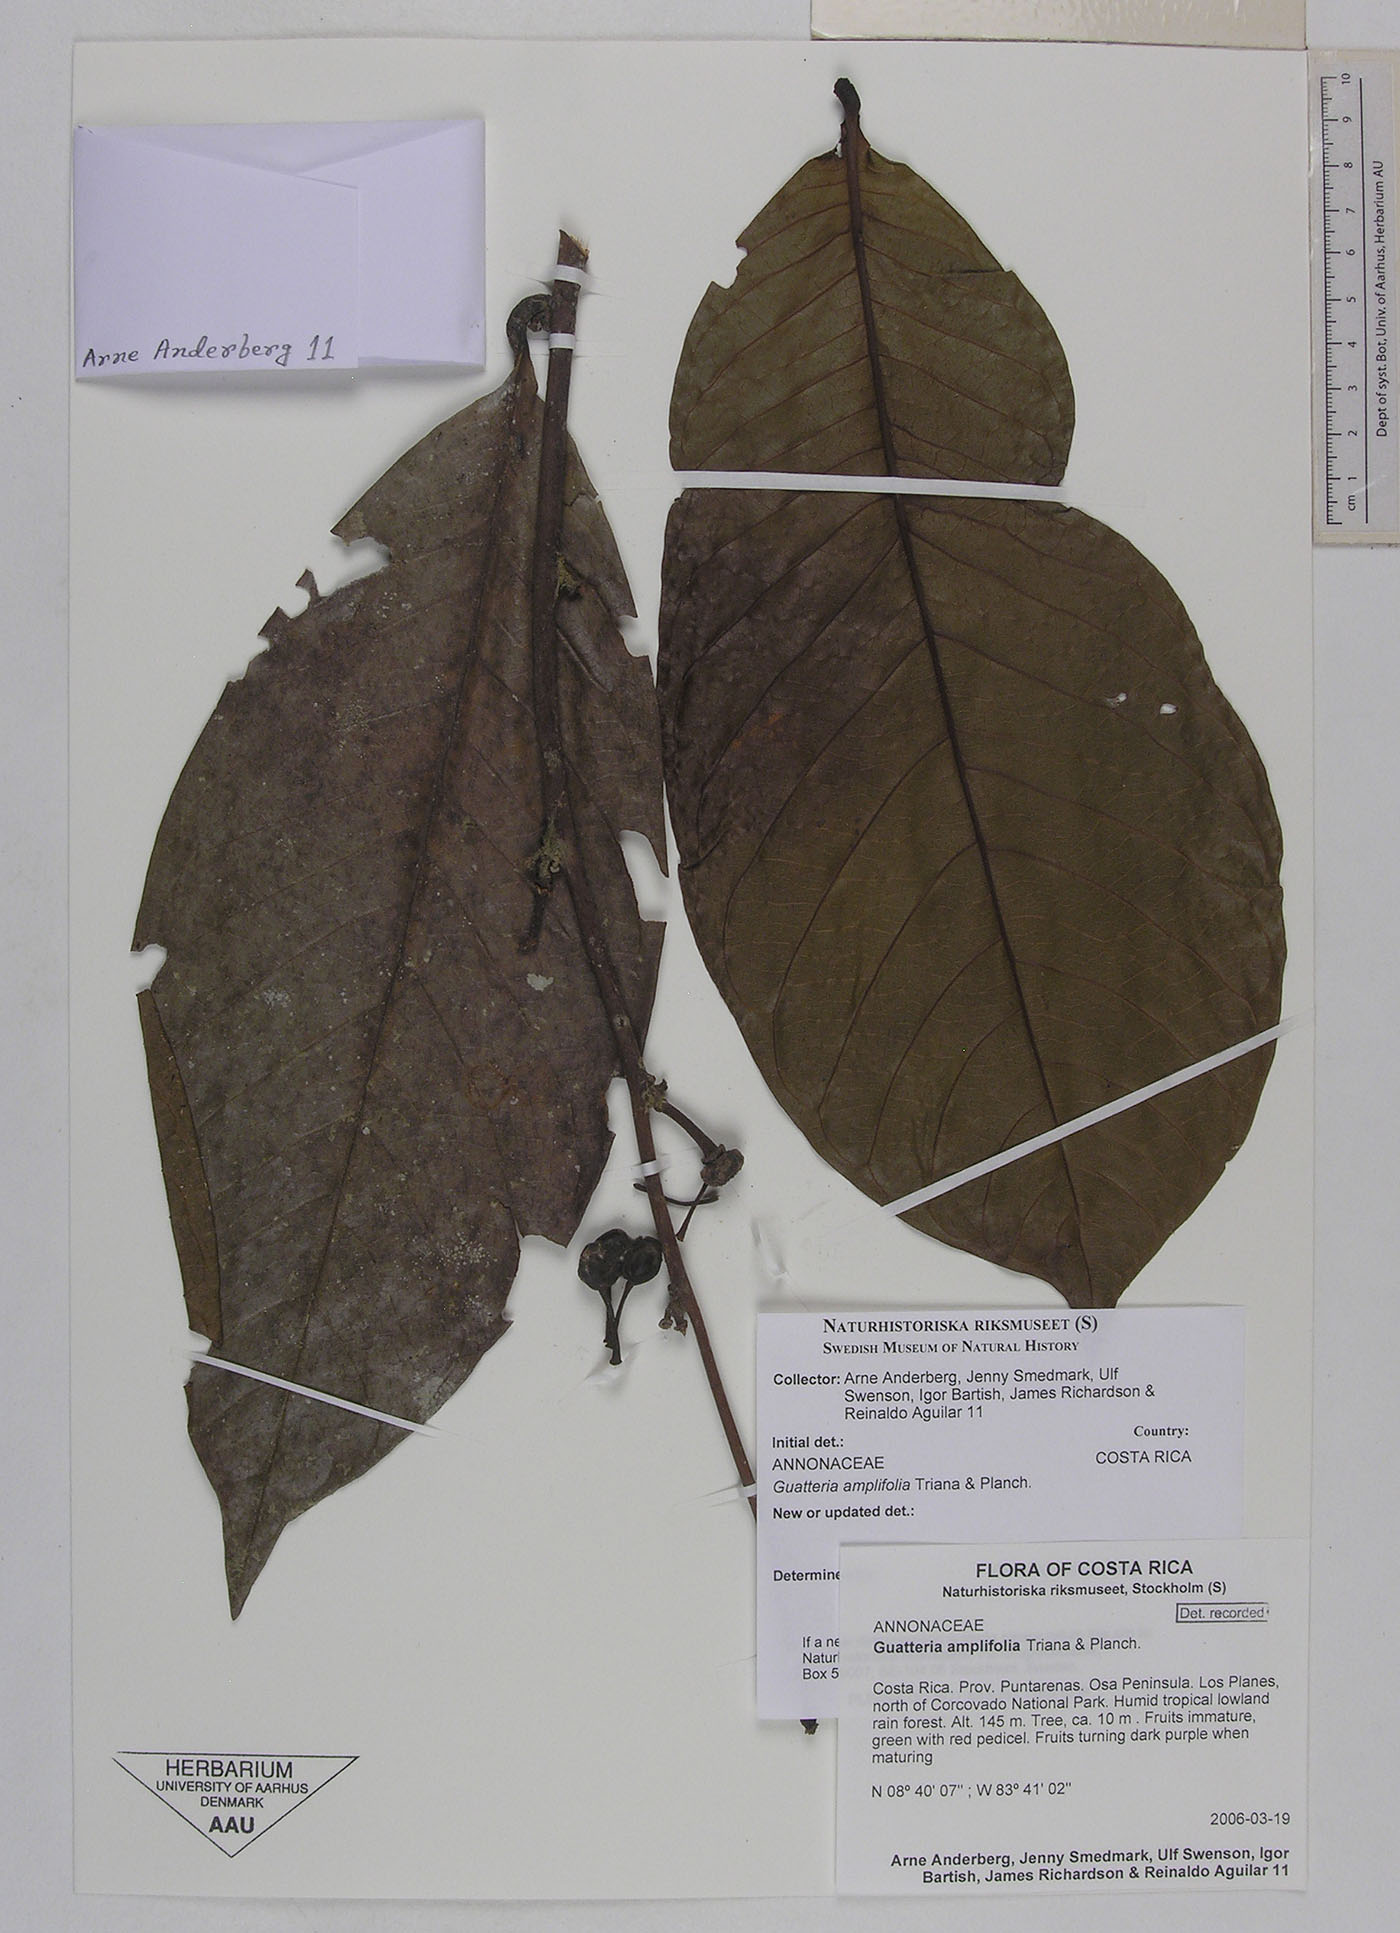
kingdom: Plantae
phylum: Tracheophyta
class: Magnoliopsida
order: Magnoliales
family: Annonaceae
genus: Guatteria
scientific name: Guatteria amplifolia
